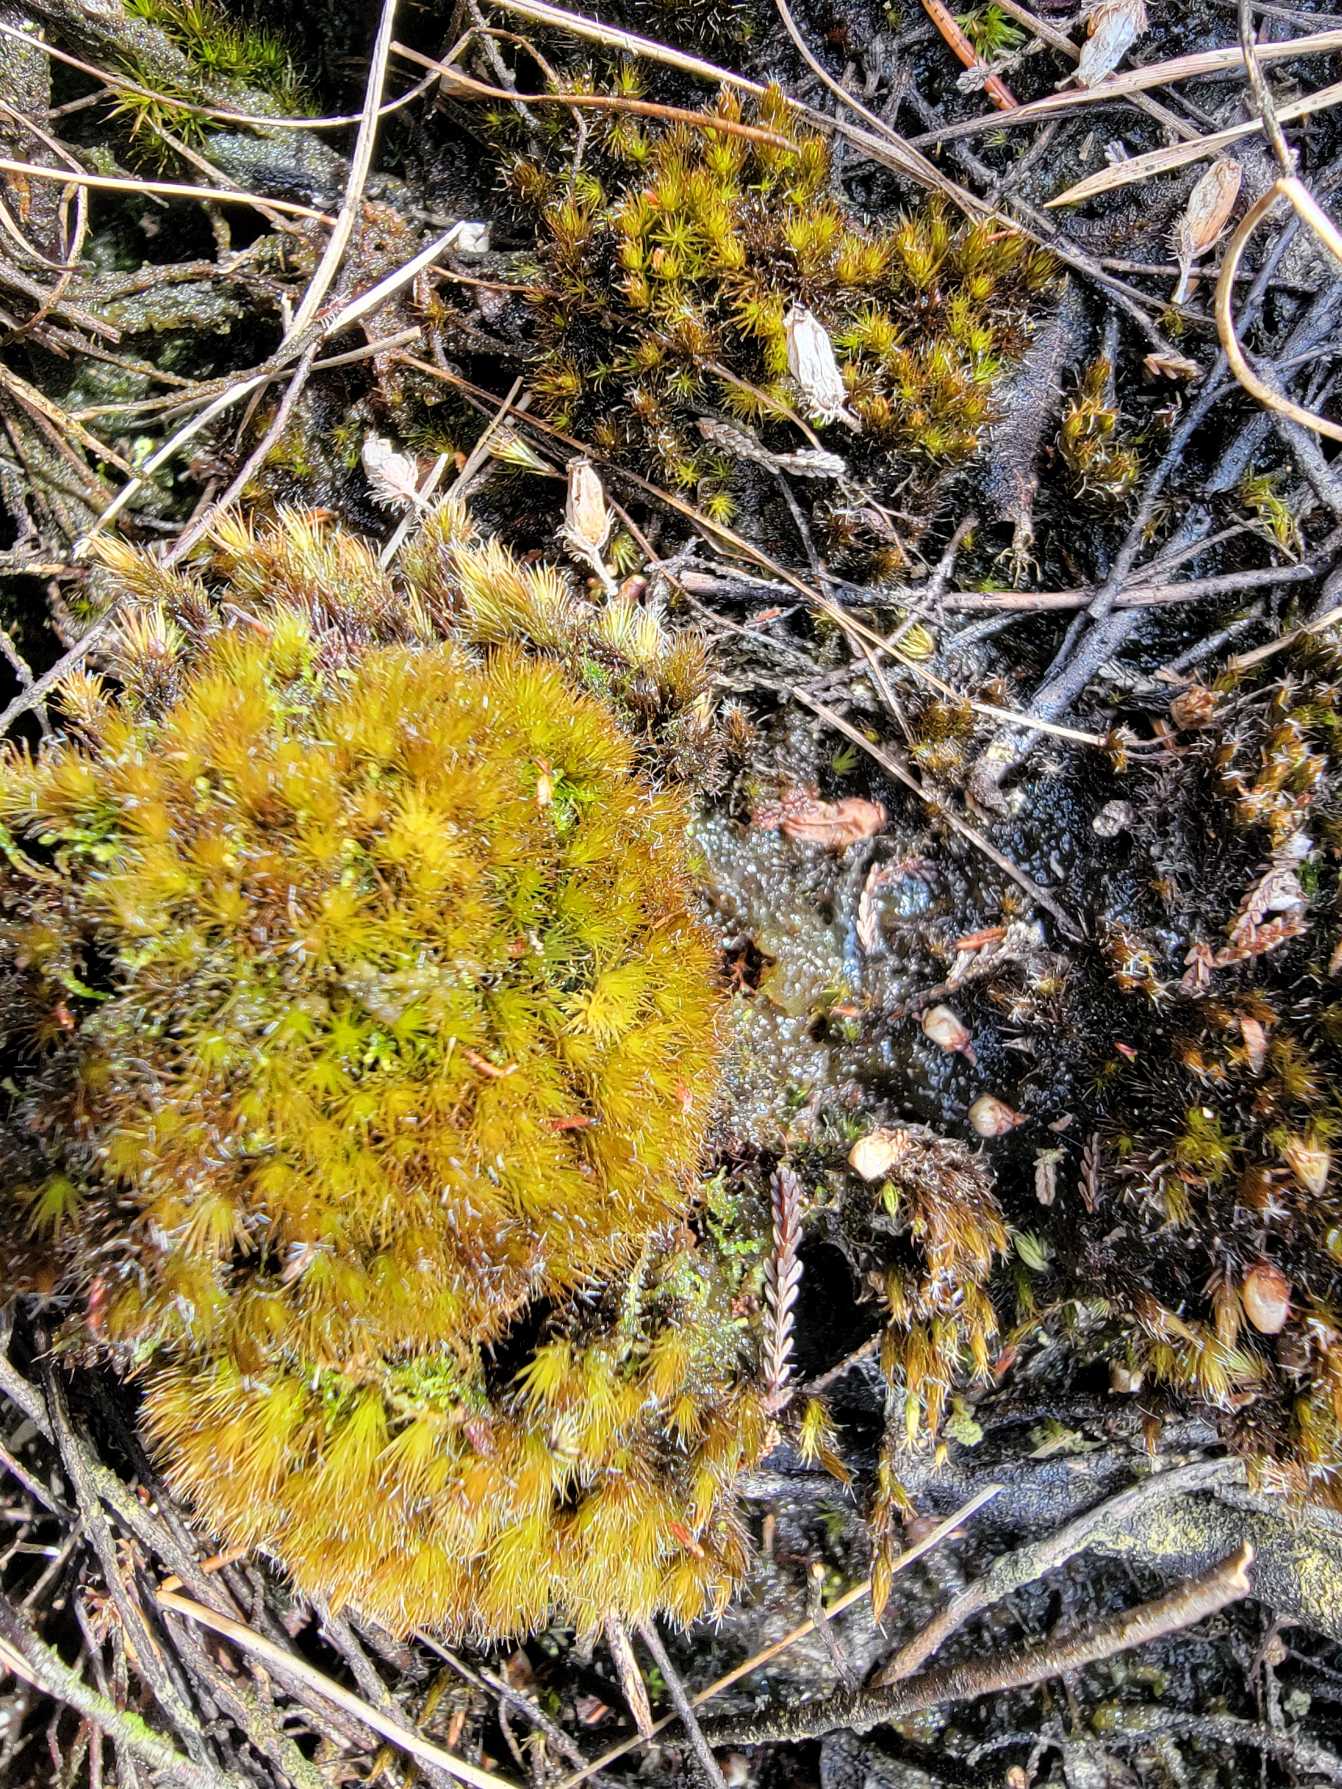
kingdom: Plantae
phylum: Bryophyta
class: Bryopsida
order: Dicranales
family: Leucobryaceae
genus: Campylopus
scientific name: Campylopus introflexus
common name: Stjerne-bredribbe
